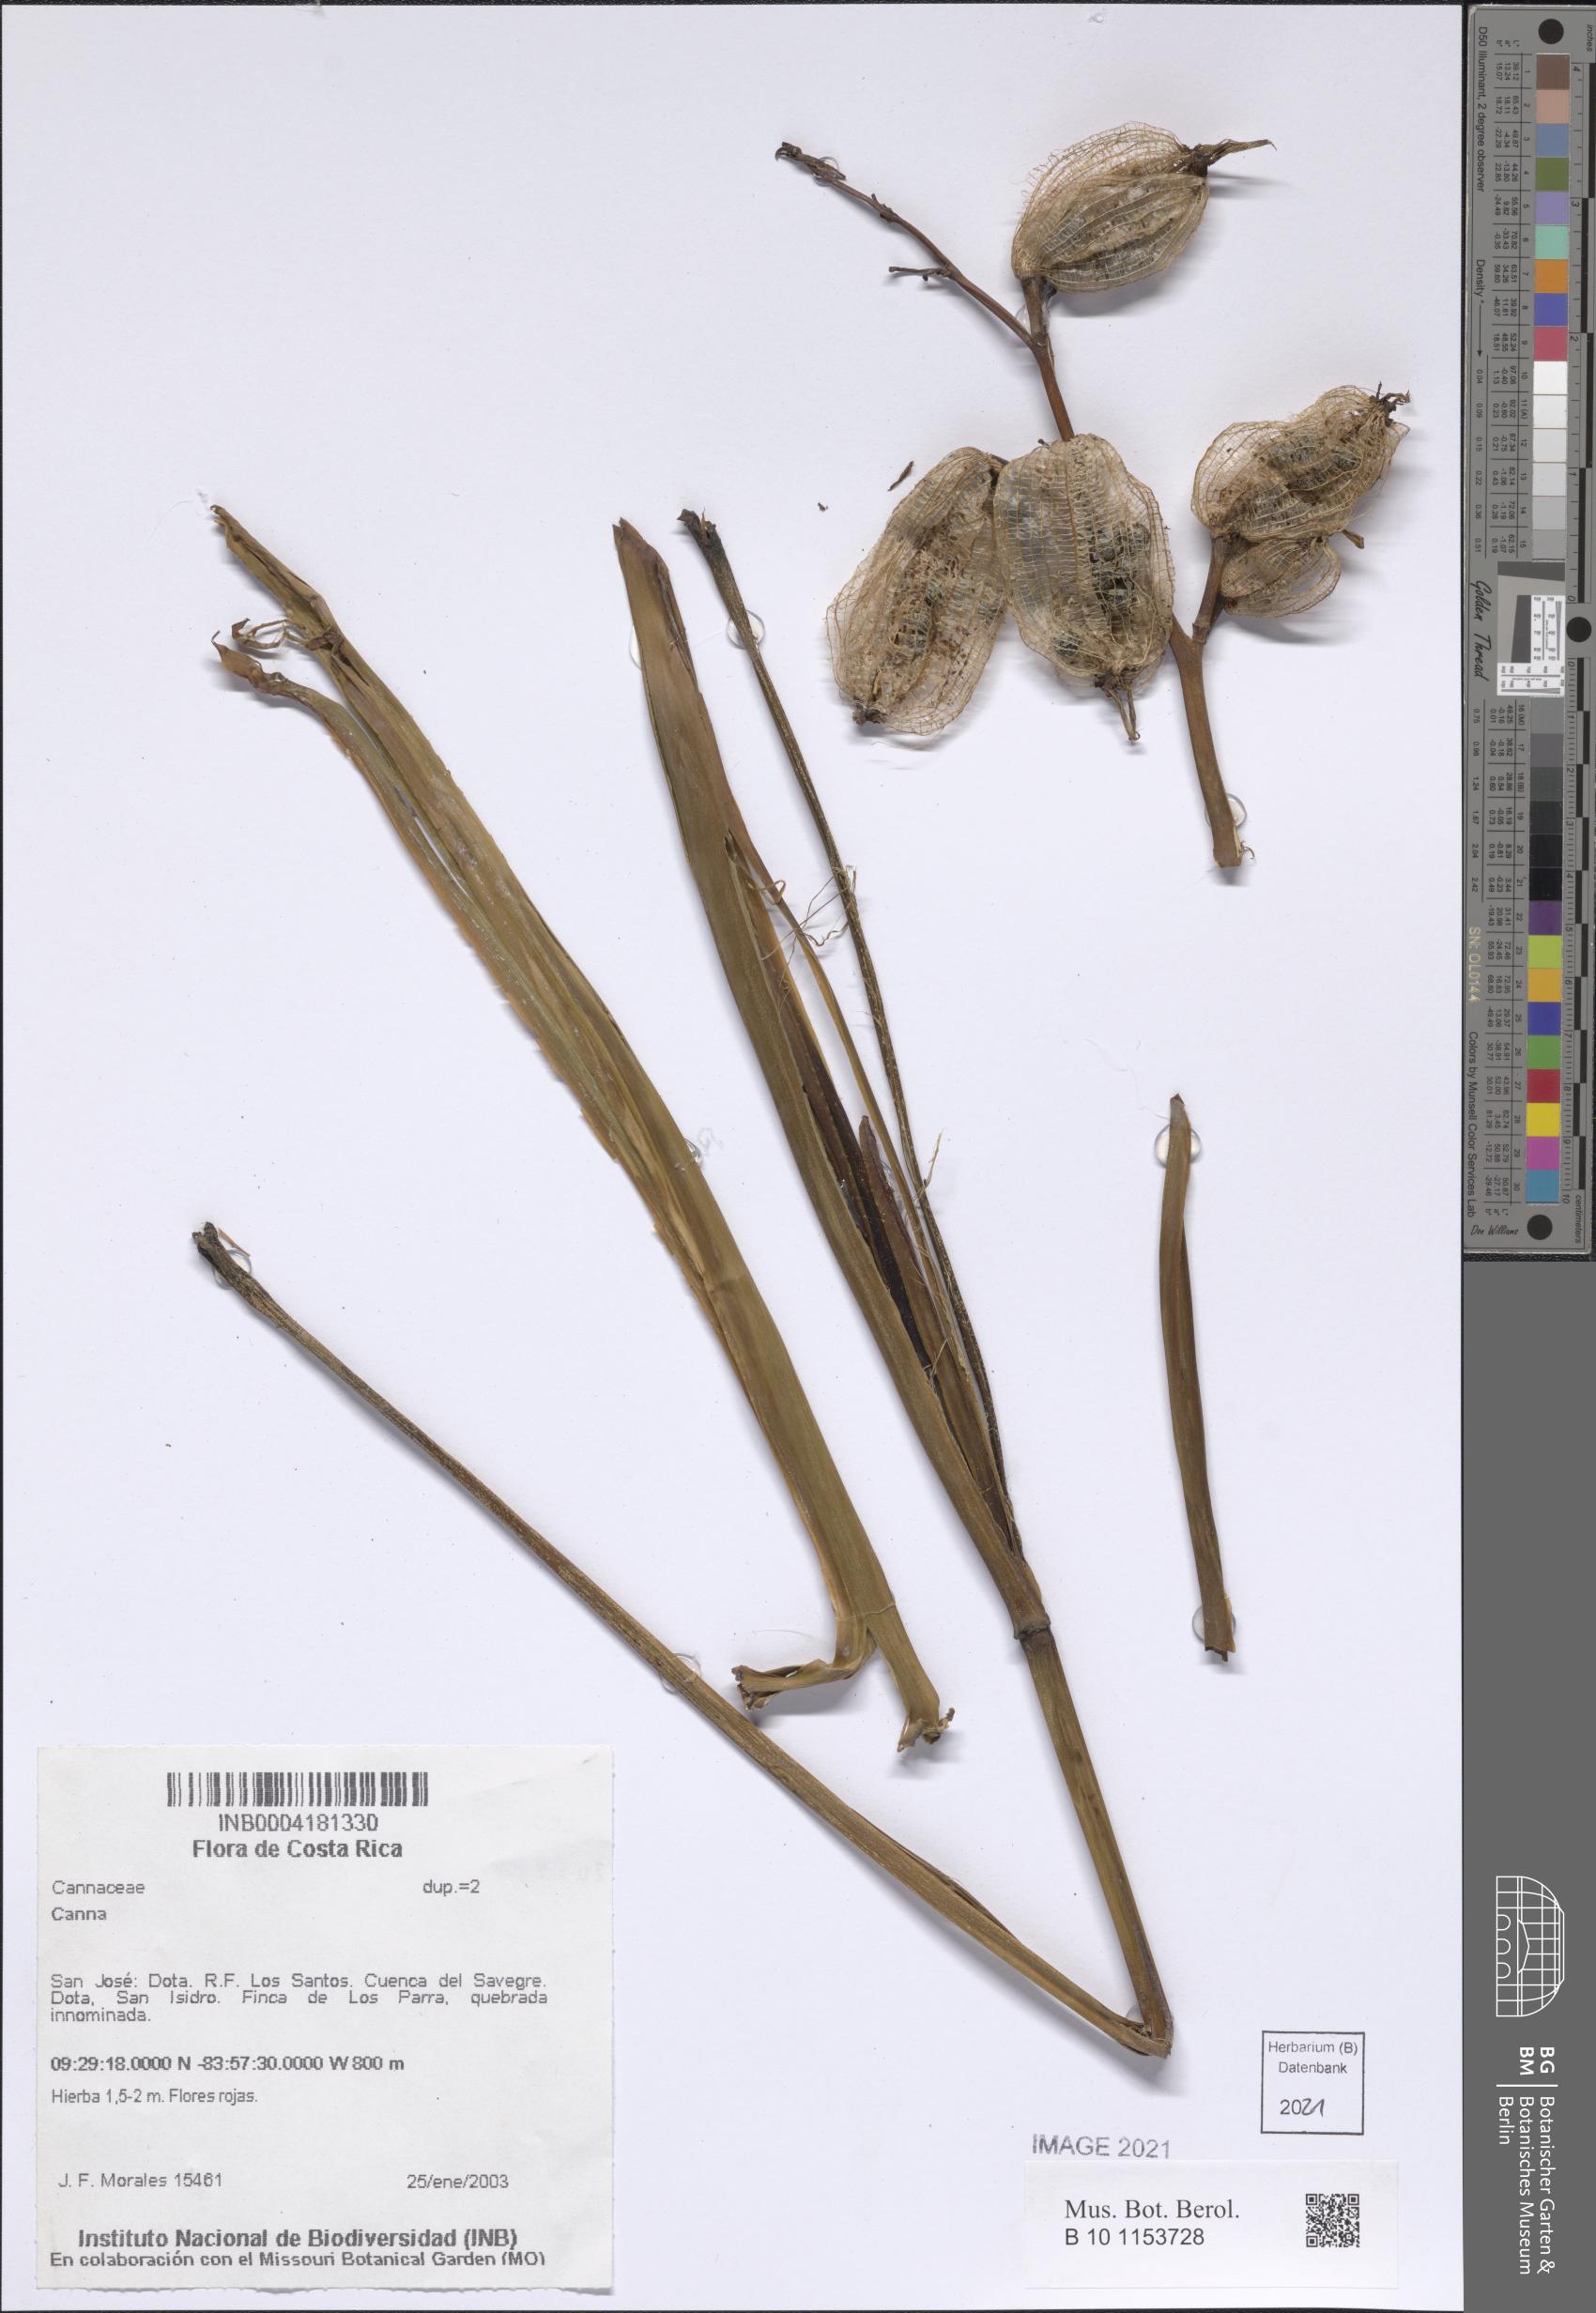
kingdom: Plantae
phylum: Tracheophyta
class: Liliopsida
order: Zingiberales
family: Cannaceae
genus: Canna
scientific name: Canna
